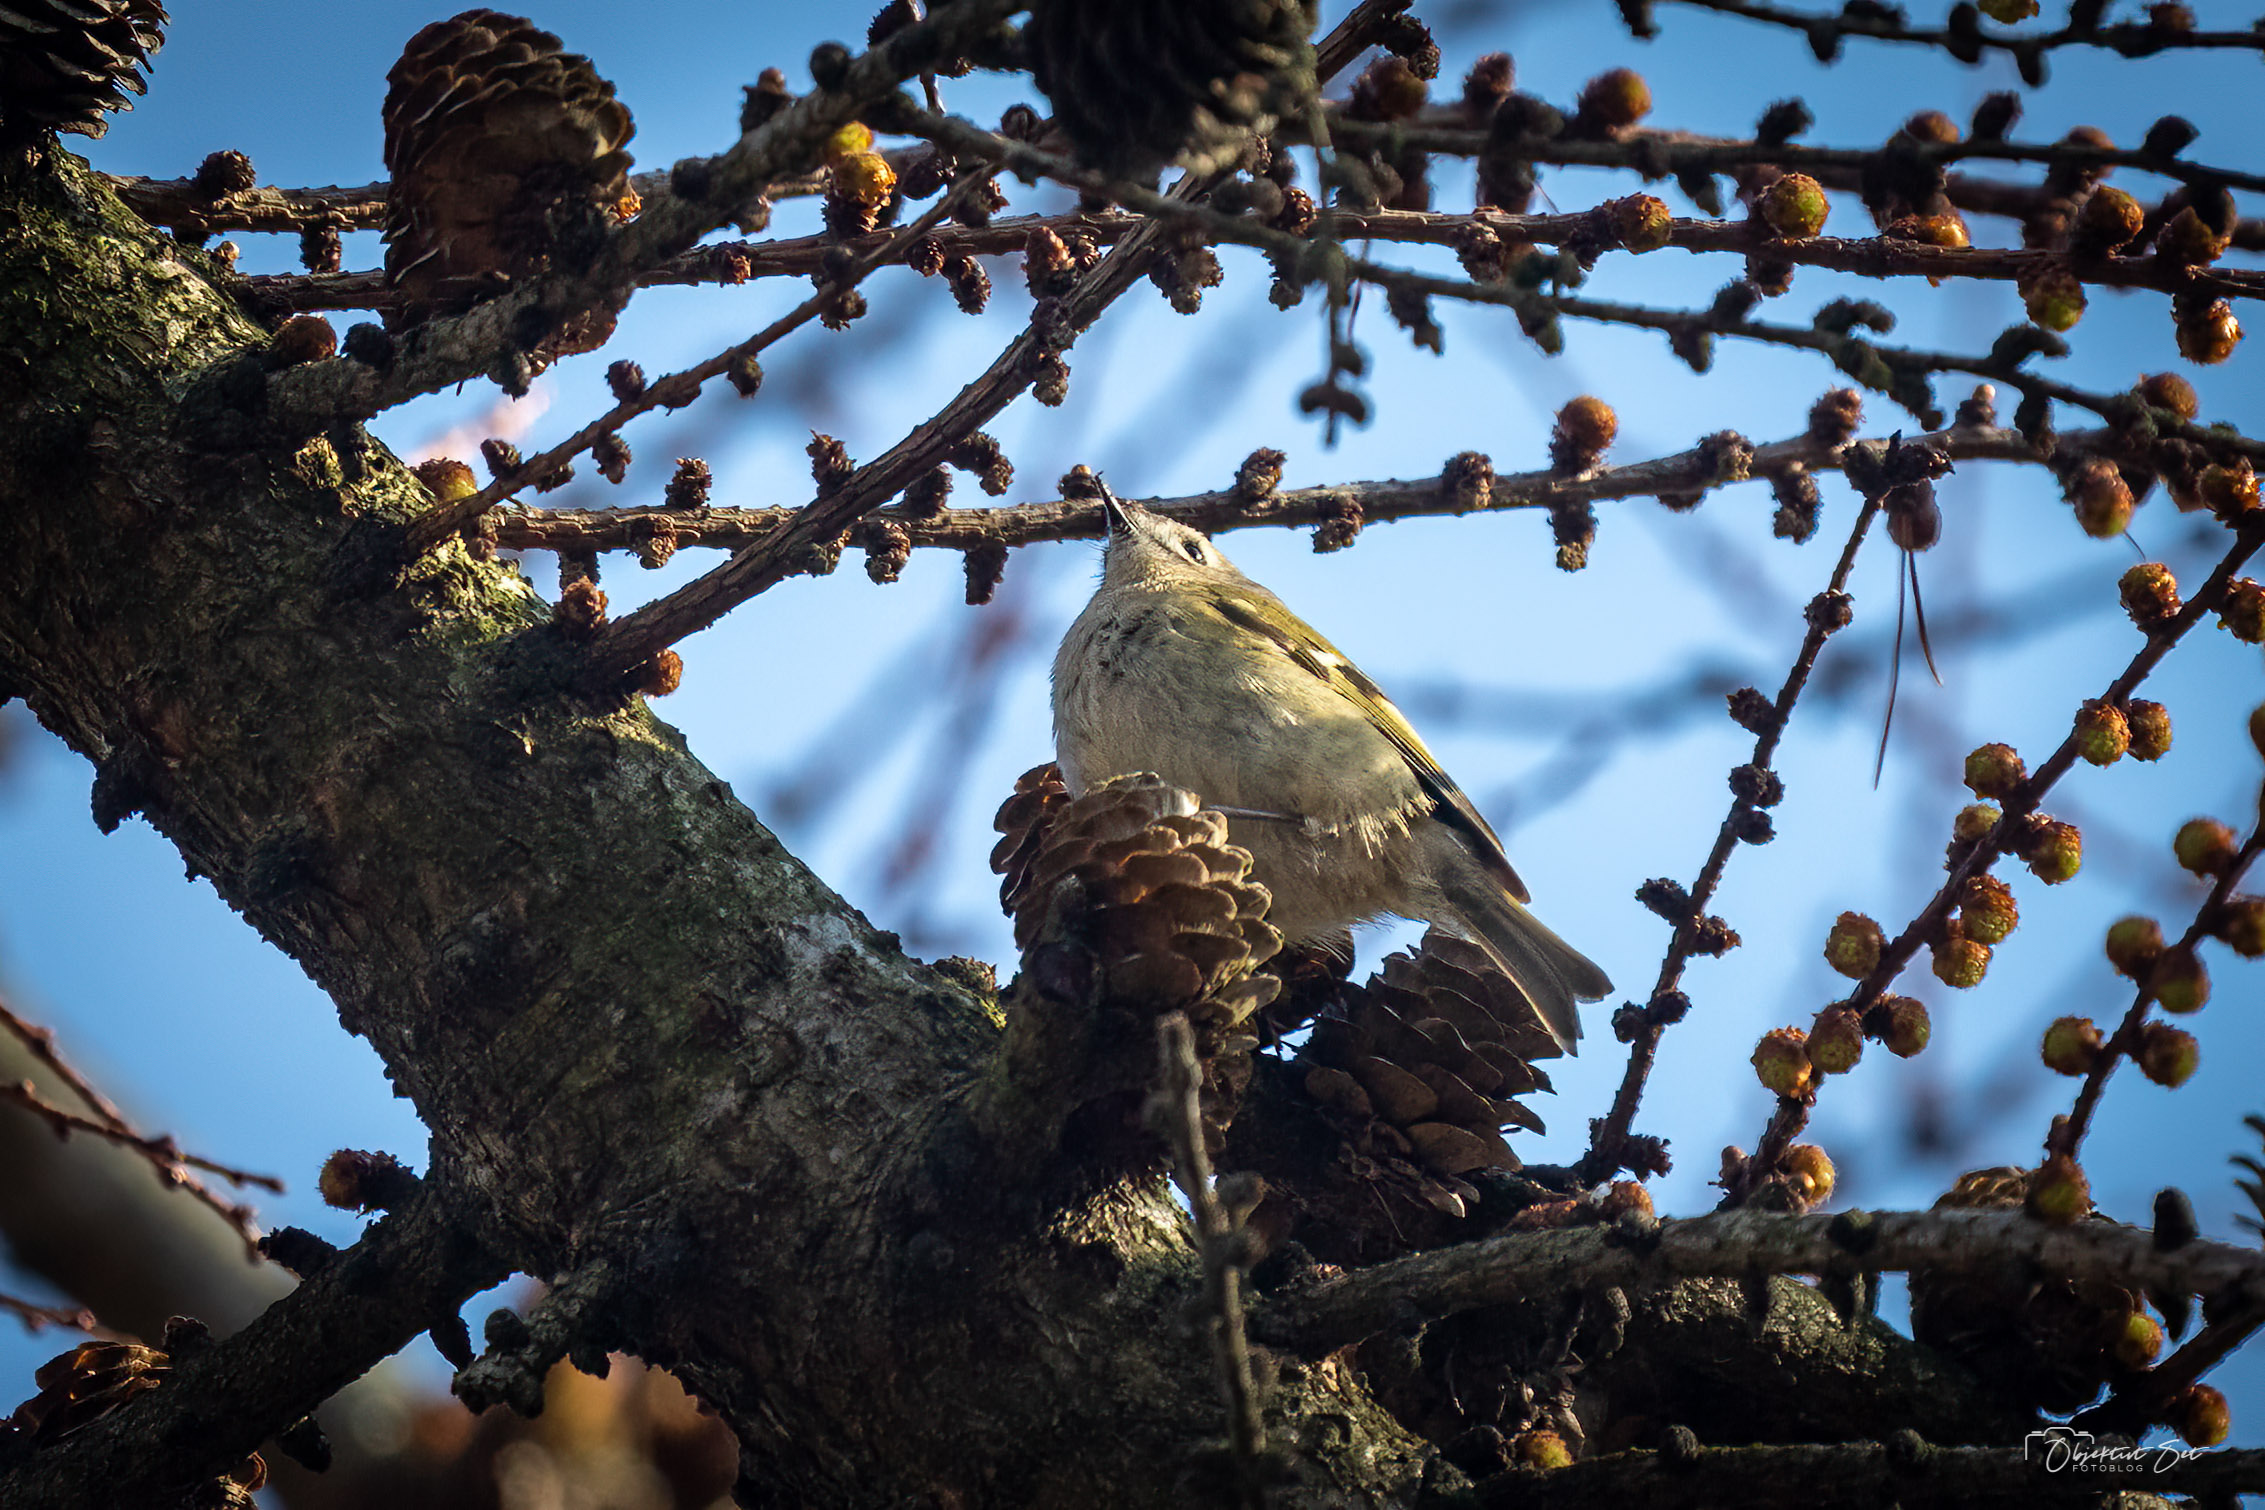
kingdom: Animalia
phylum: Chordata
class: Aves
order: Passeriformes
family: Regulidae
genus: Regulus
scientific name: Regulus regulus
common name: Fuglekonge
